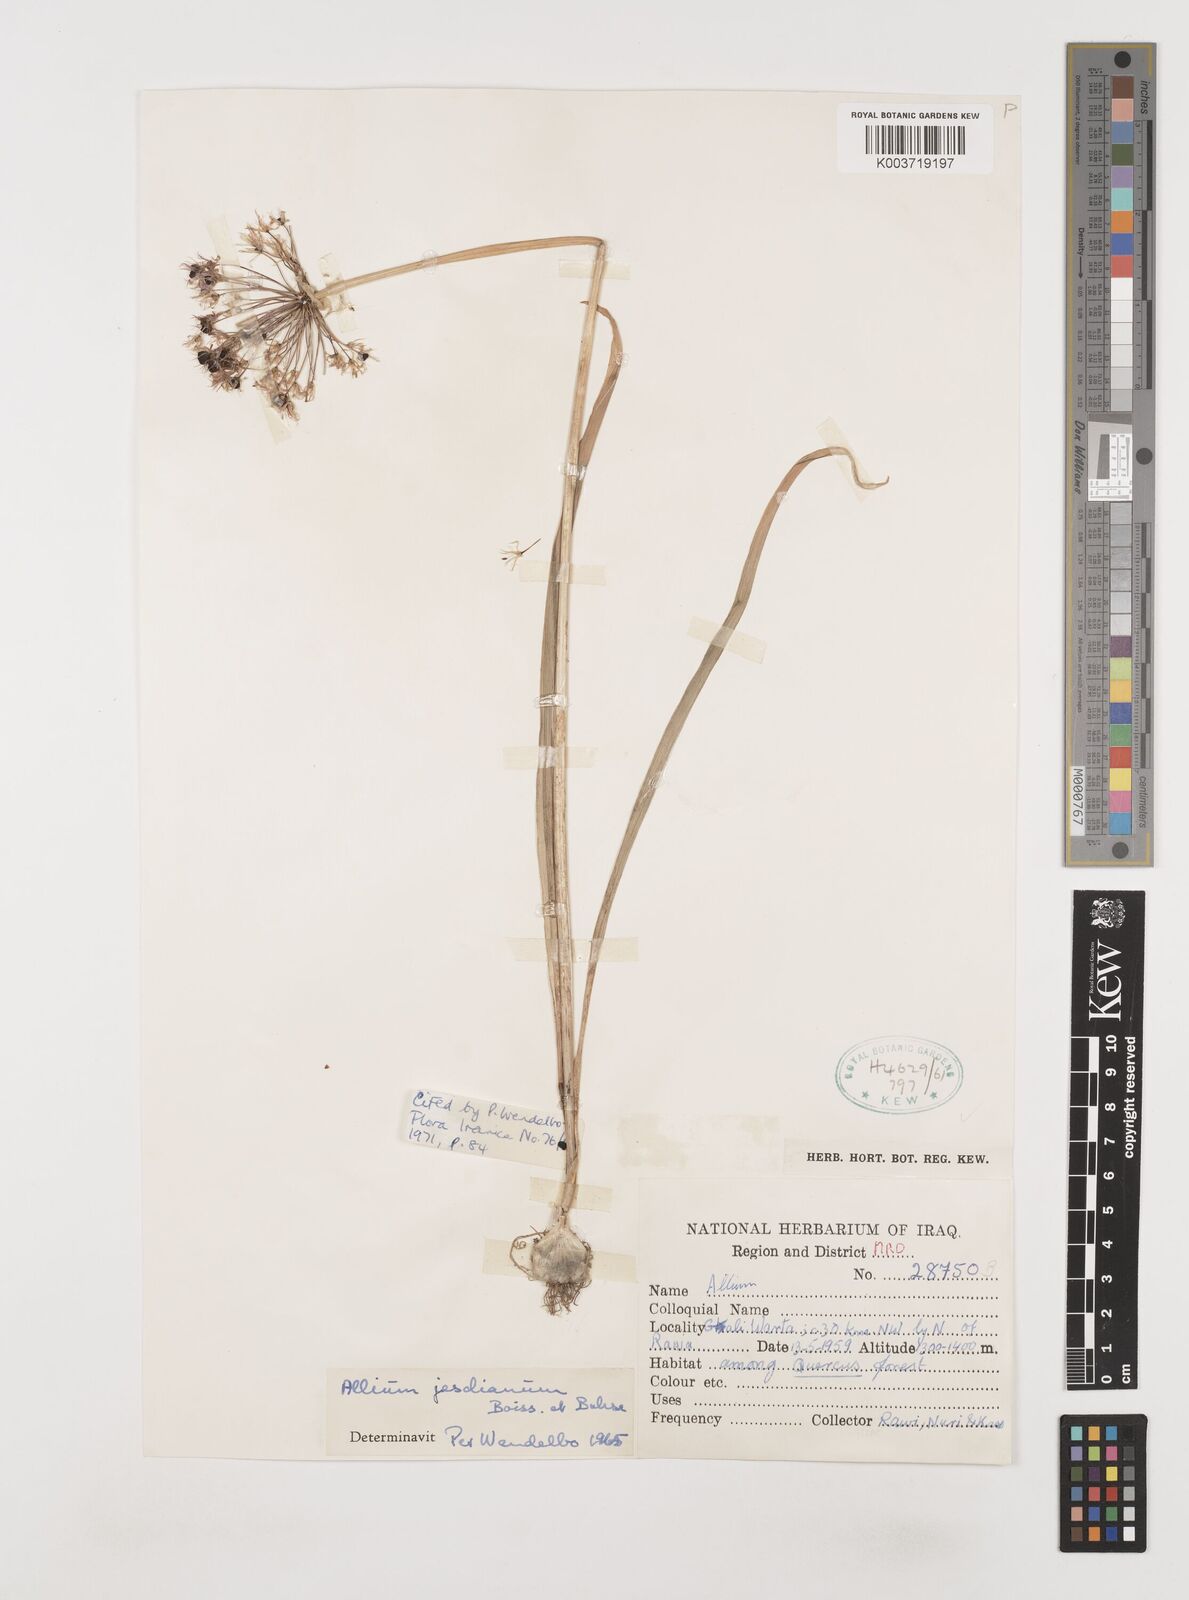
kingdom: Plantae
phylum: Tracheophyta
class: Liliopsida
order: Asparagales
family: Amaryllidaceae
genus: Allium
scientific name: Allium jesdianum
